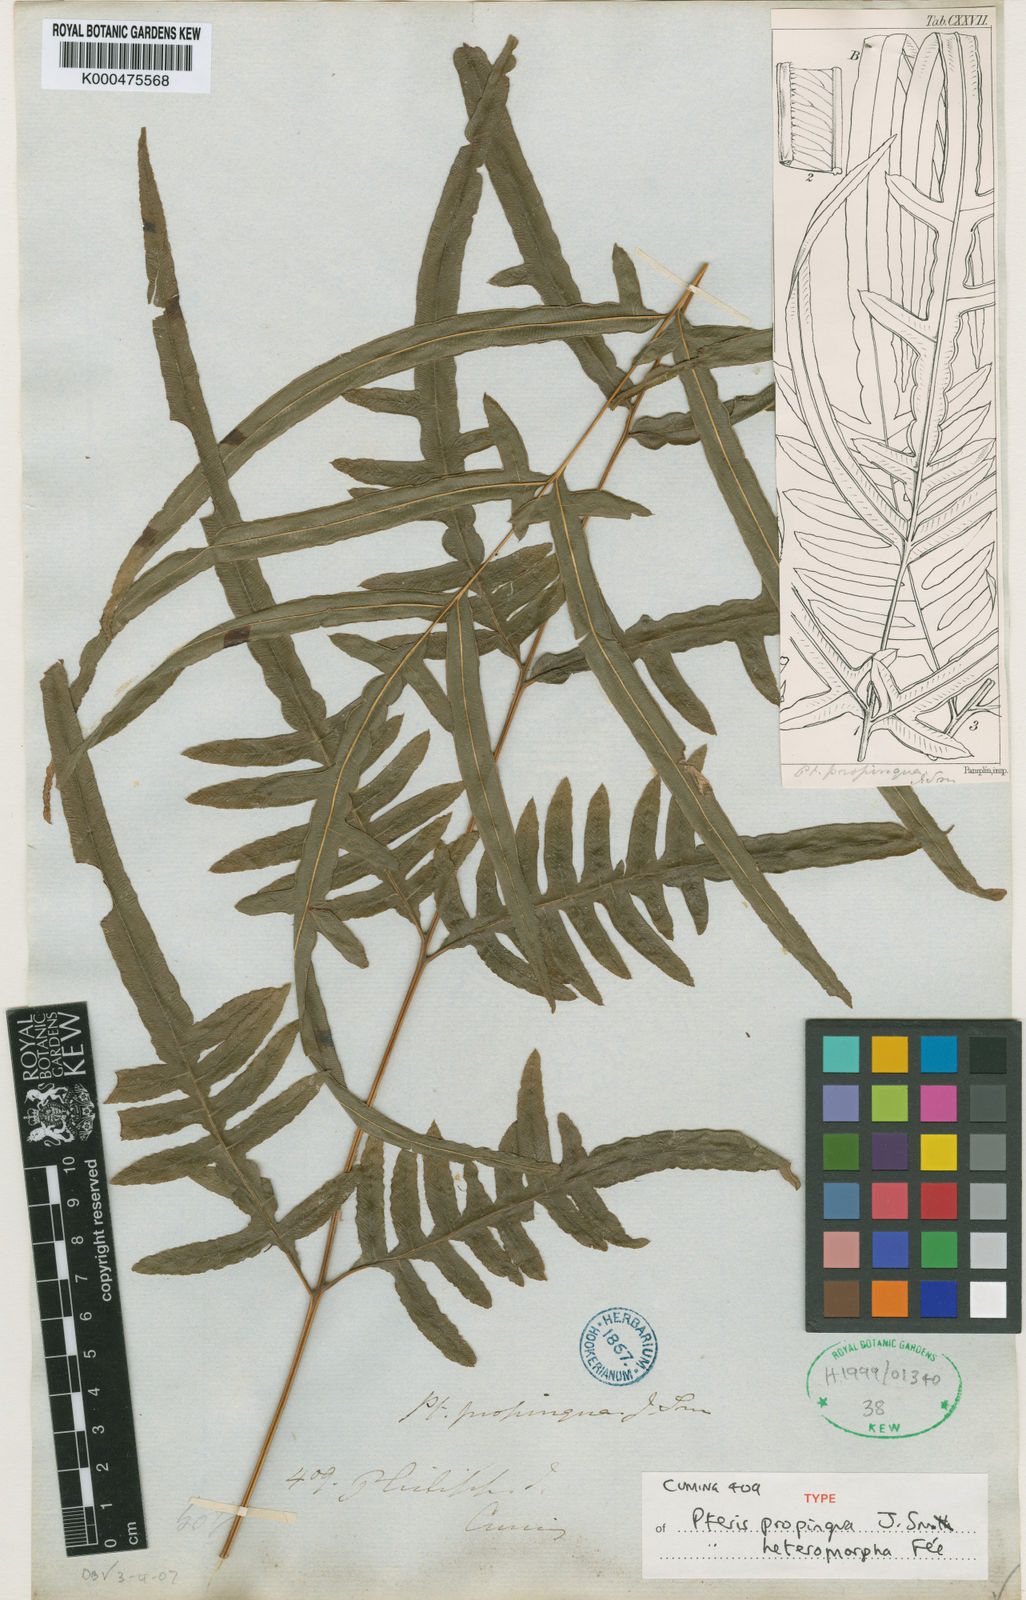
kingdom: Plantae
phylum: Tracheophyta
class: Polypodiopsida
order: Polypodiales
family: Pteridaceae
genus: Pteris
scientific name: Pteris
